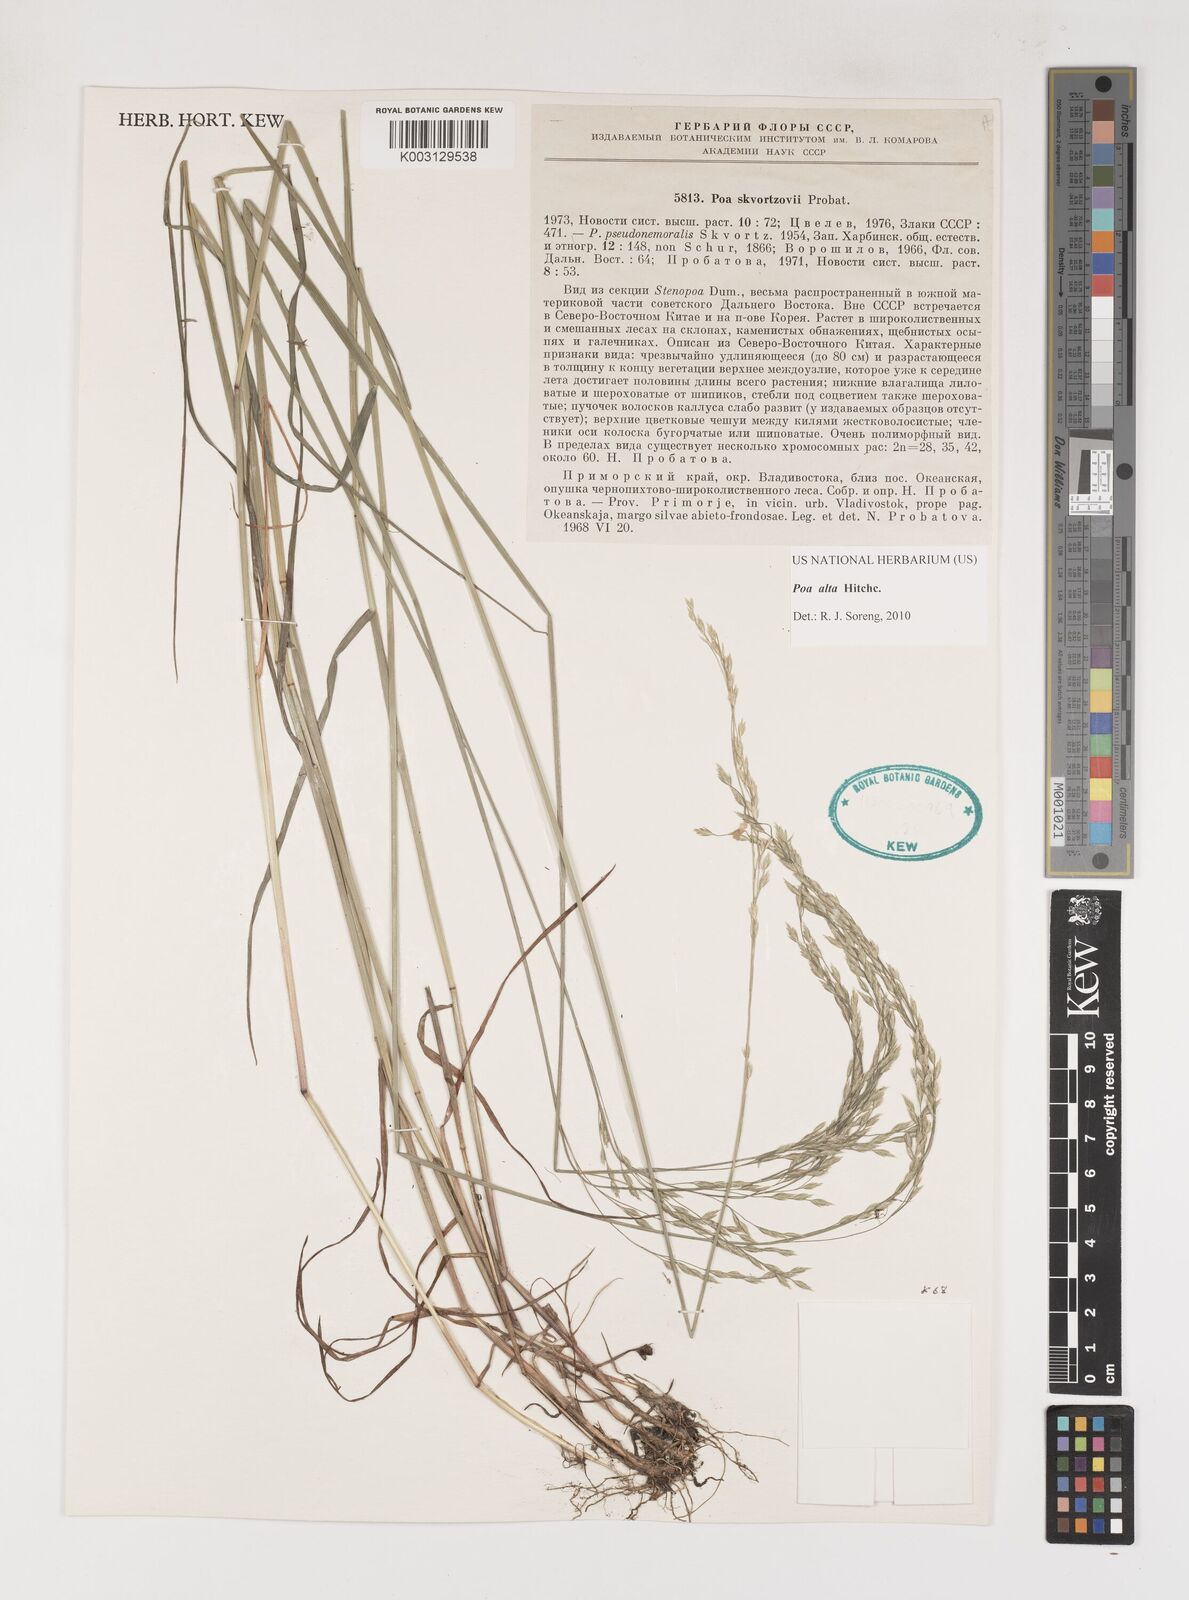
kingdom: Plantae
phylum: Tracheophyta
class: Liliopsida
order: Poales
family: Poaceae
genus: Poa
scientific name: Poa alta
